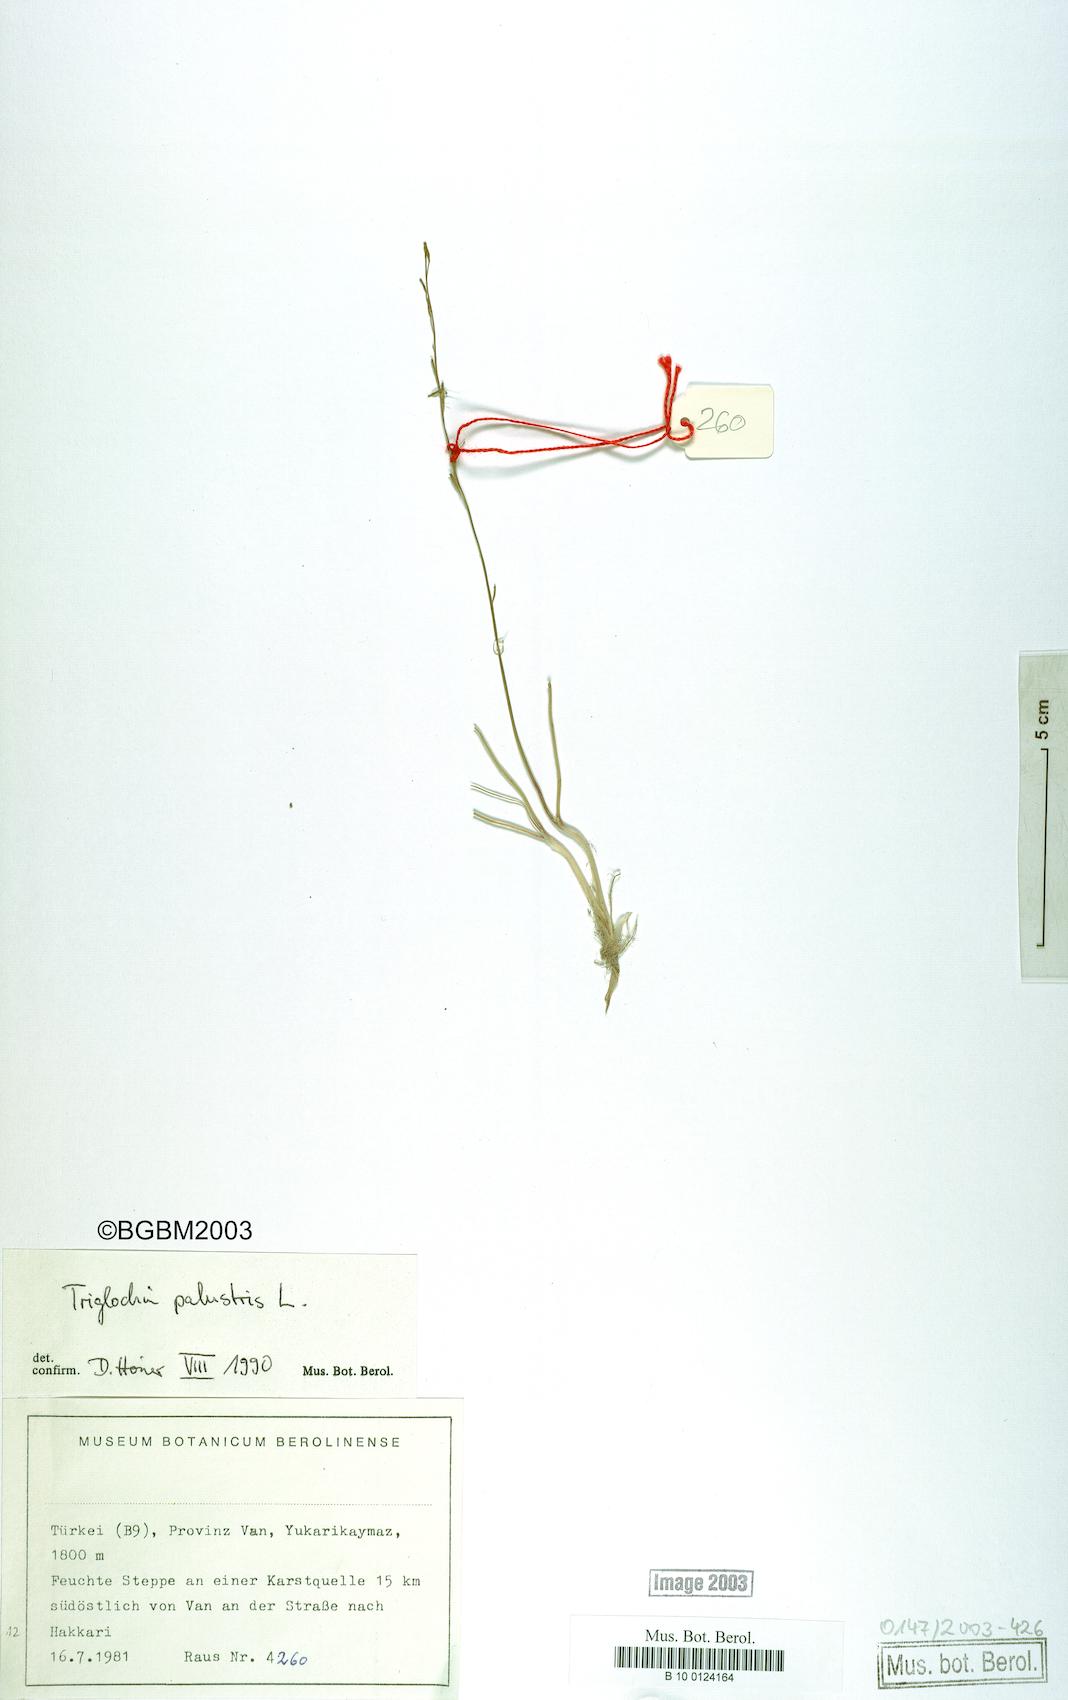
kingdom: Plantae
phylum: Tracheophyta
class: Liliopsida
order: Alismatales
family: Juncaginaceae
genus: Triglochin
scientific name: Triglochin palustris
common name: Marsh arrowgrass
